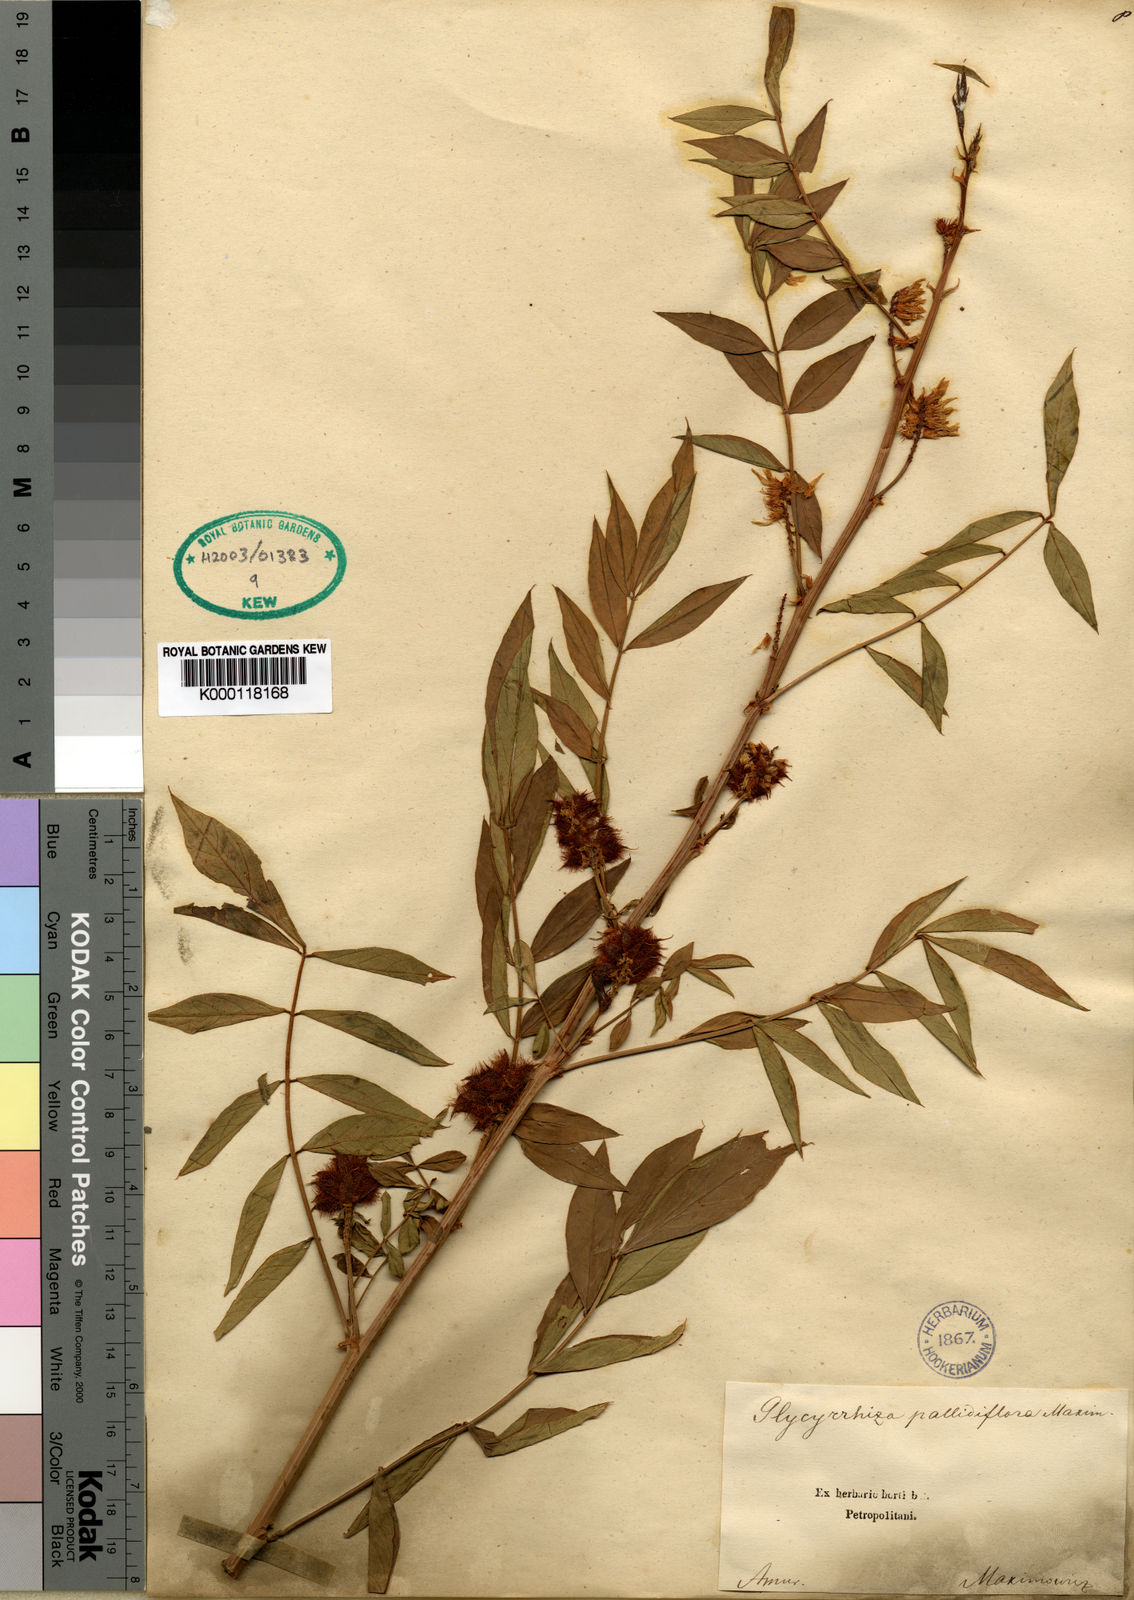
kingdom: Plantae
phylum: Tracheophyta
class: Magnoliopsida
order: Fabales
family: Fabaceae
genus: Glycyrrhiza
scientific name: Glycyrrhiza pallidiflora
